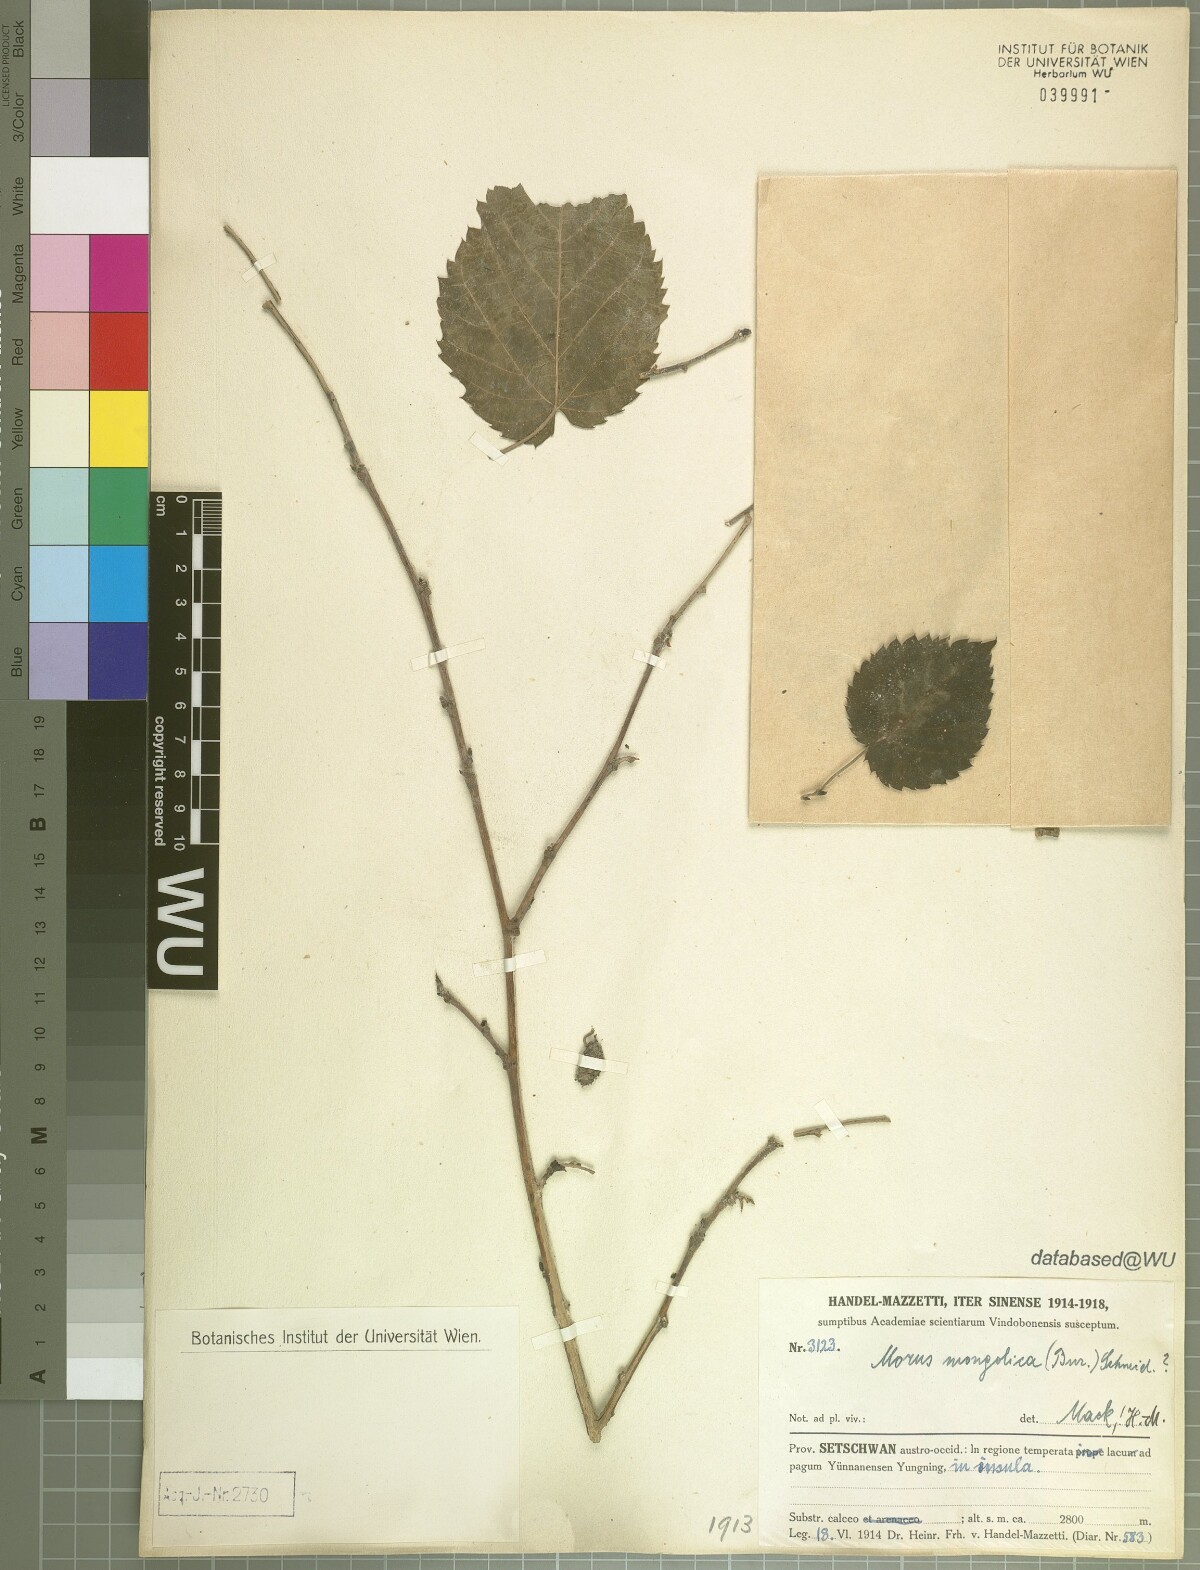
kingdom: Plantae
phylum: Tracheophyta
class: Magnoliopsida
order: Rosales
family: Moraceae
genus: Morus
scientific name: Morus mongolica
